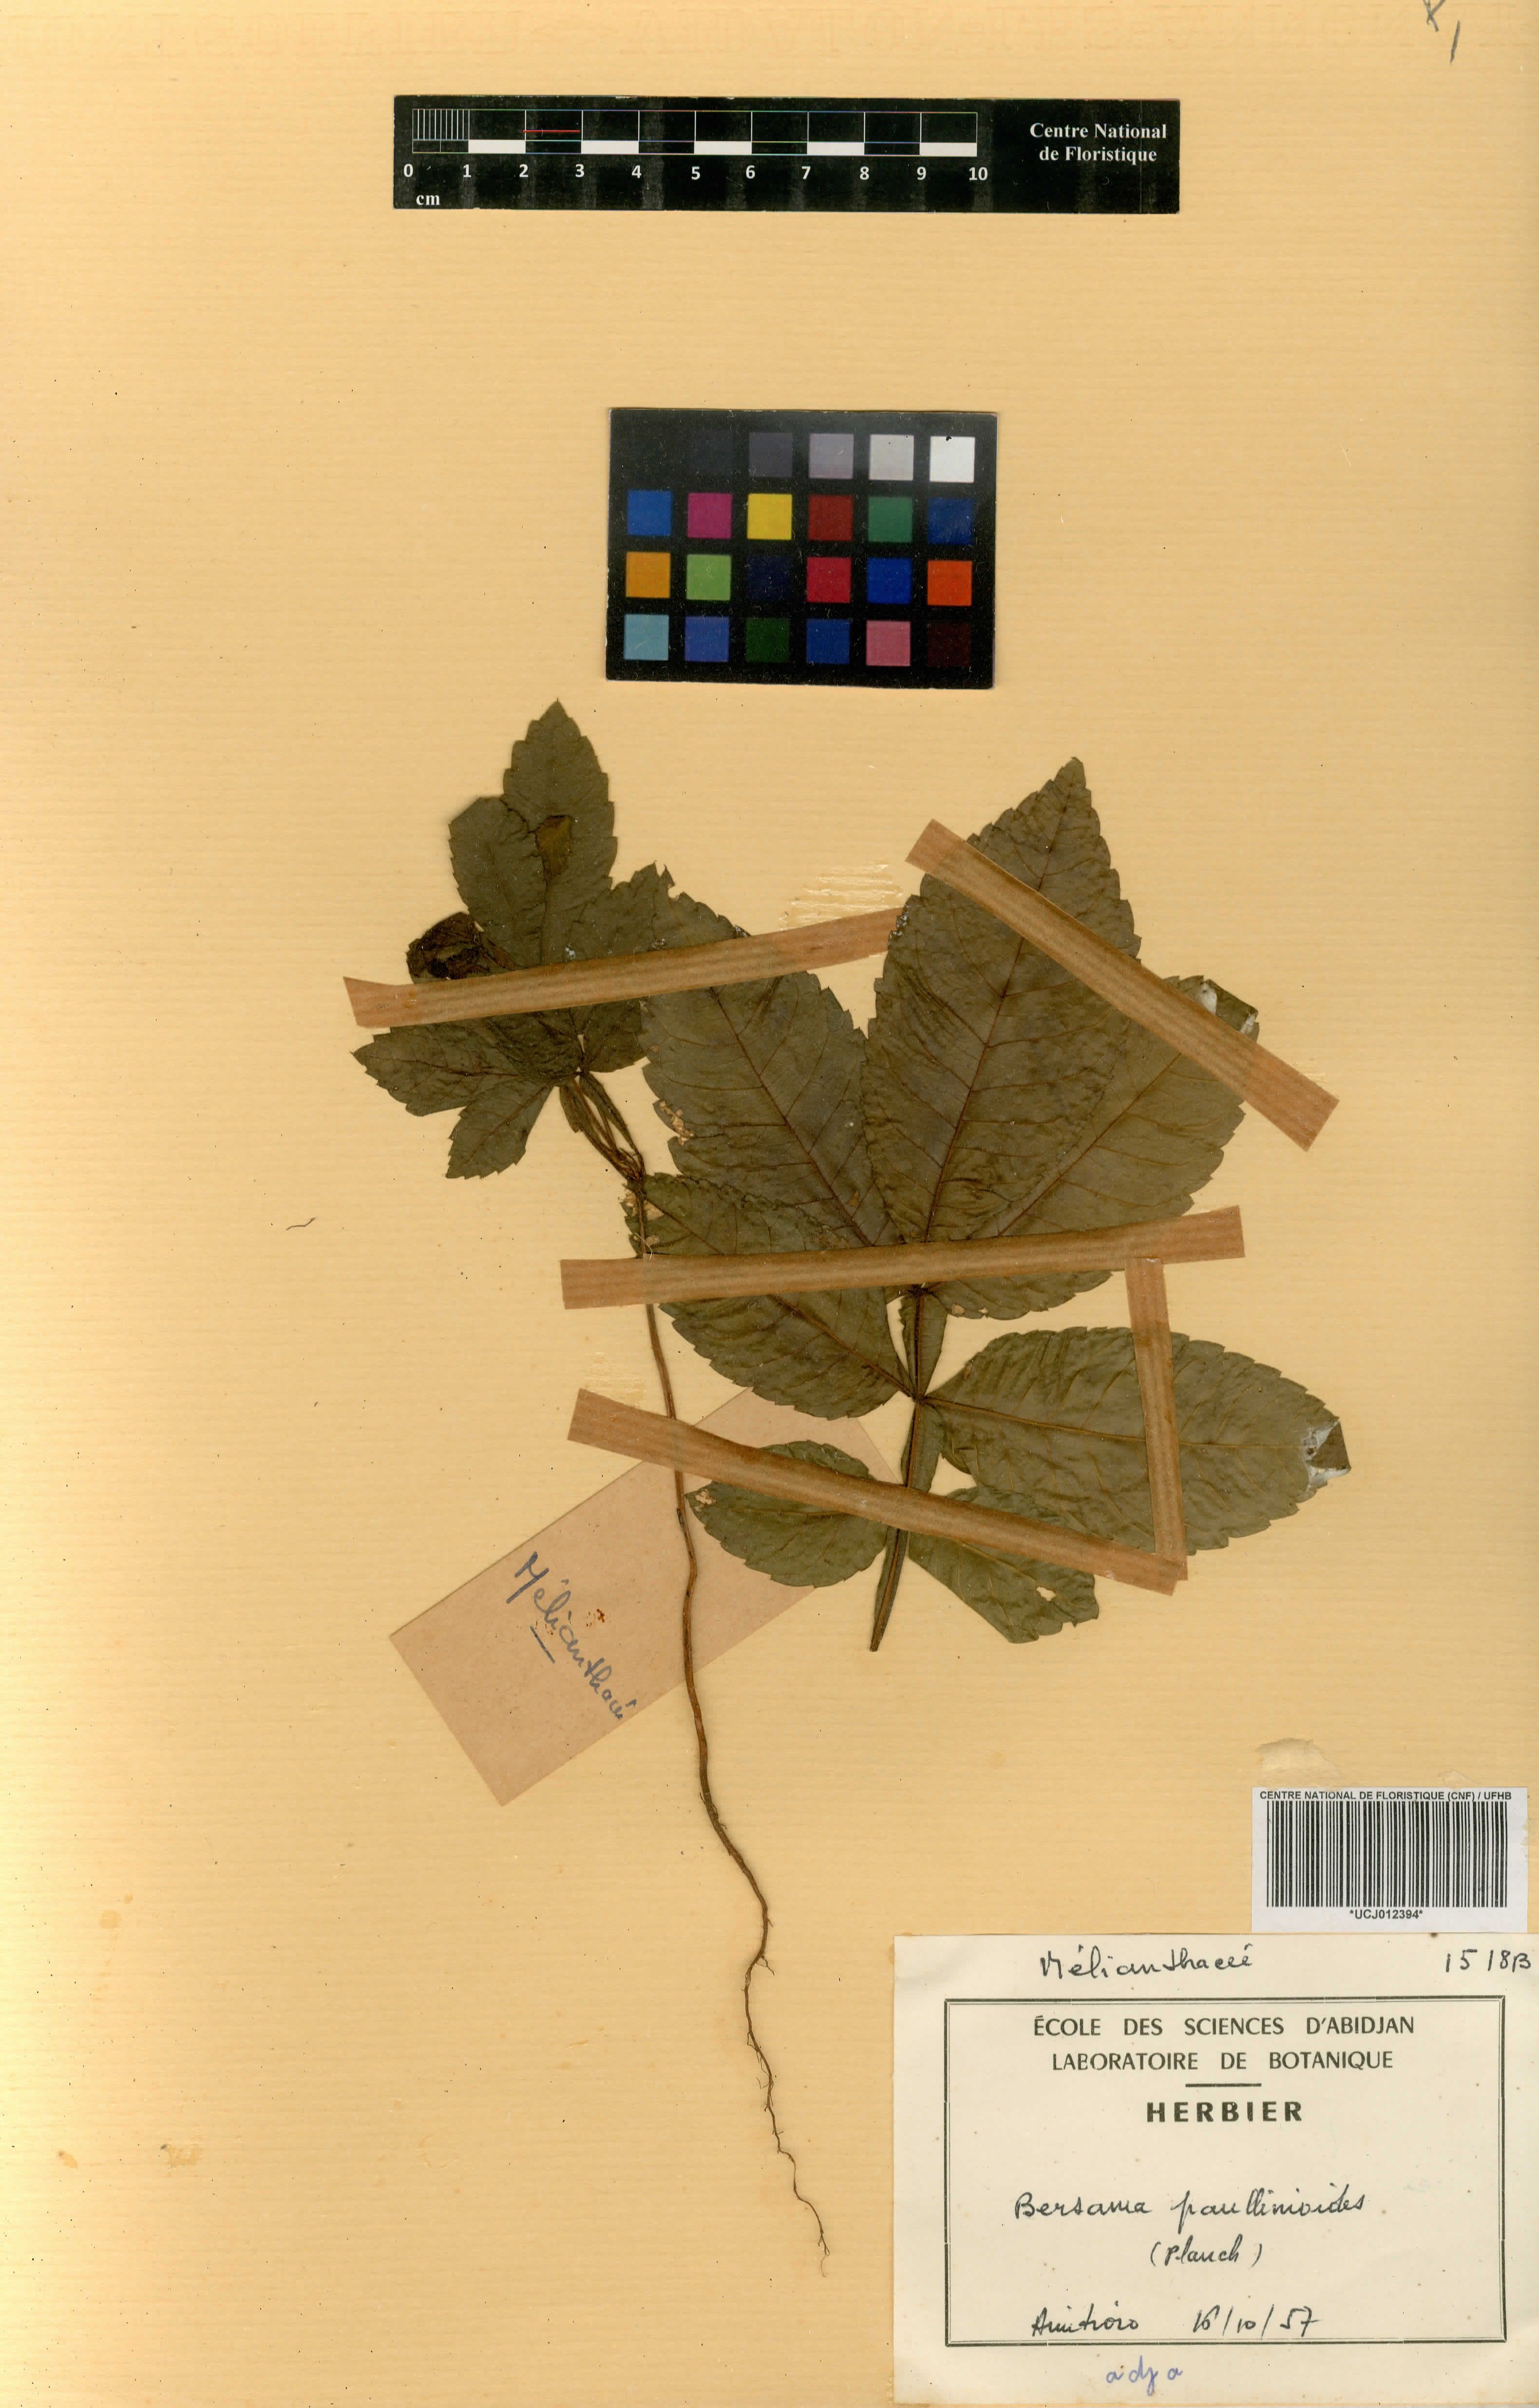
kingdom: Plantae
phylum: Tracheophyta
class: Magnoliopsida
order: Geraniales
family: Melianthaceae
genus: Bersama
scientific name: Bersama abyssinica
